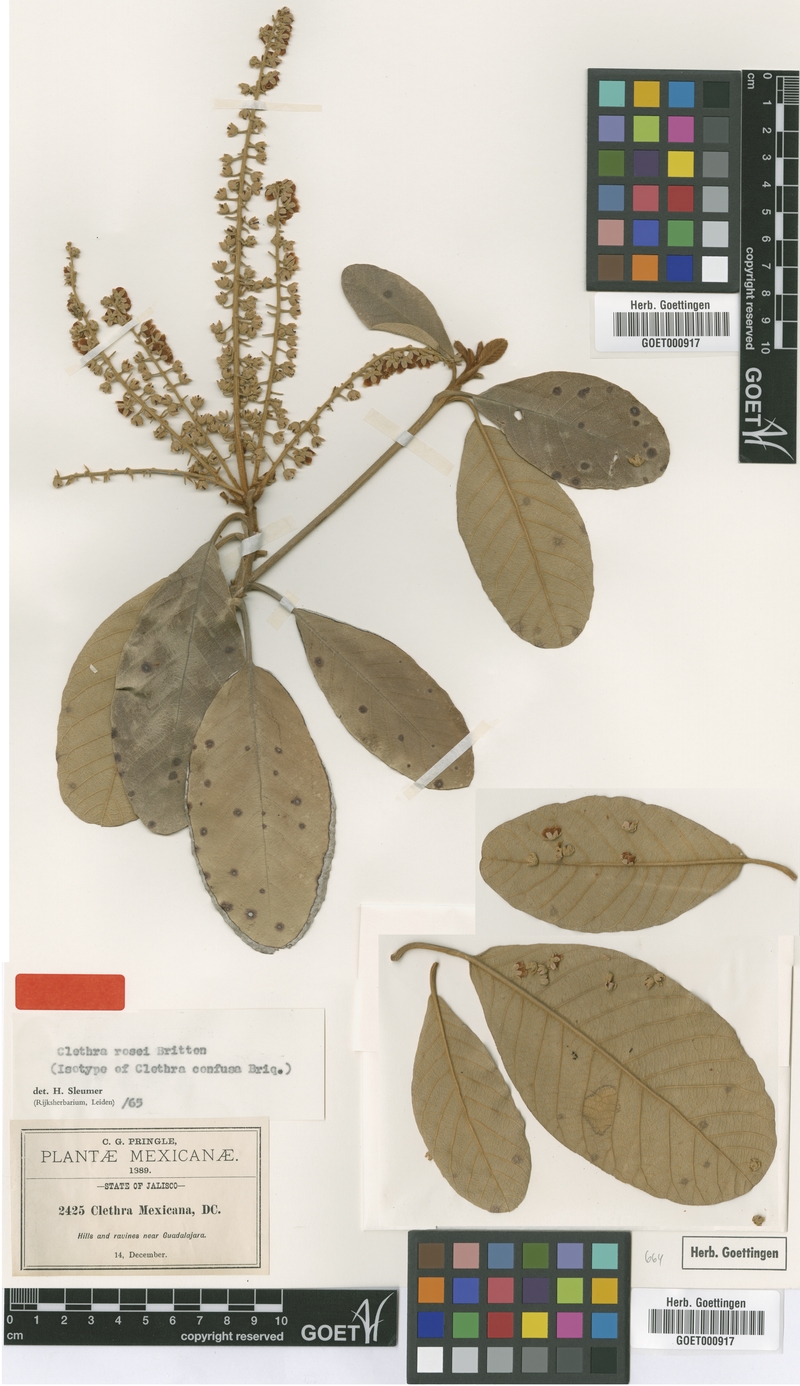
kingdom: Plantae
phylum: Tracheophyta
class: Magnoliopsida
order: Ericales
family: Clethraceae
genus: Clethra
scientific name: Clethra rosei
